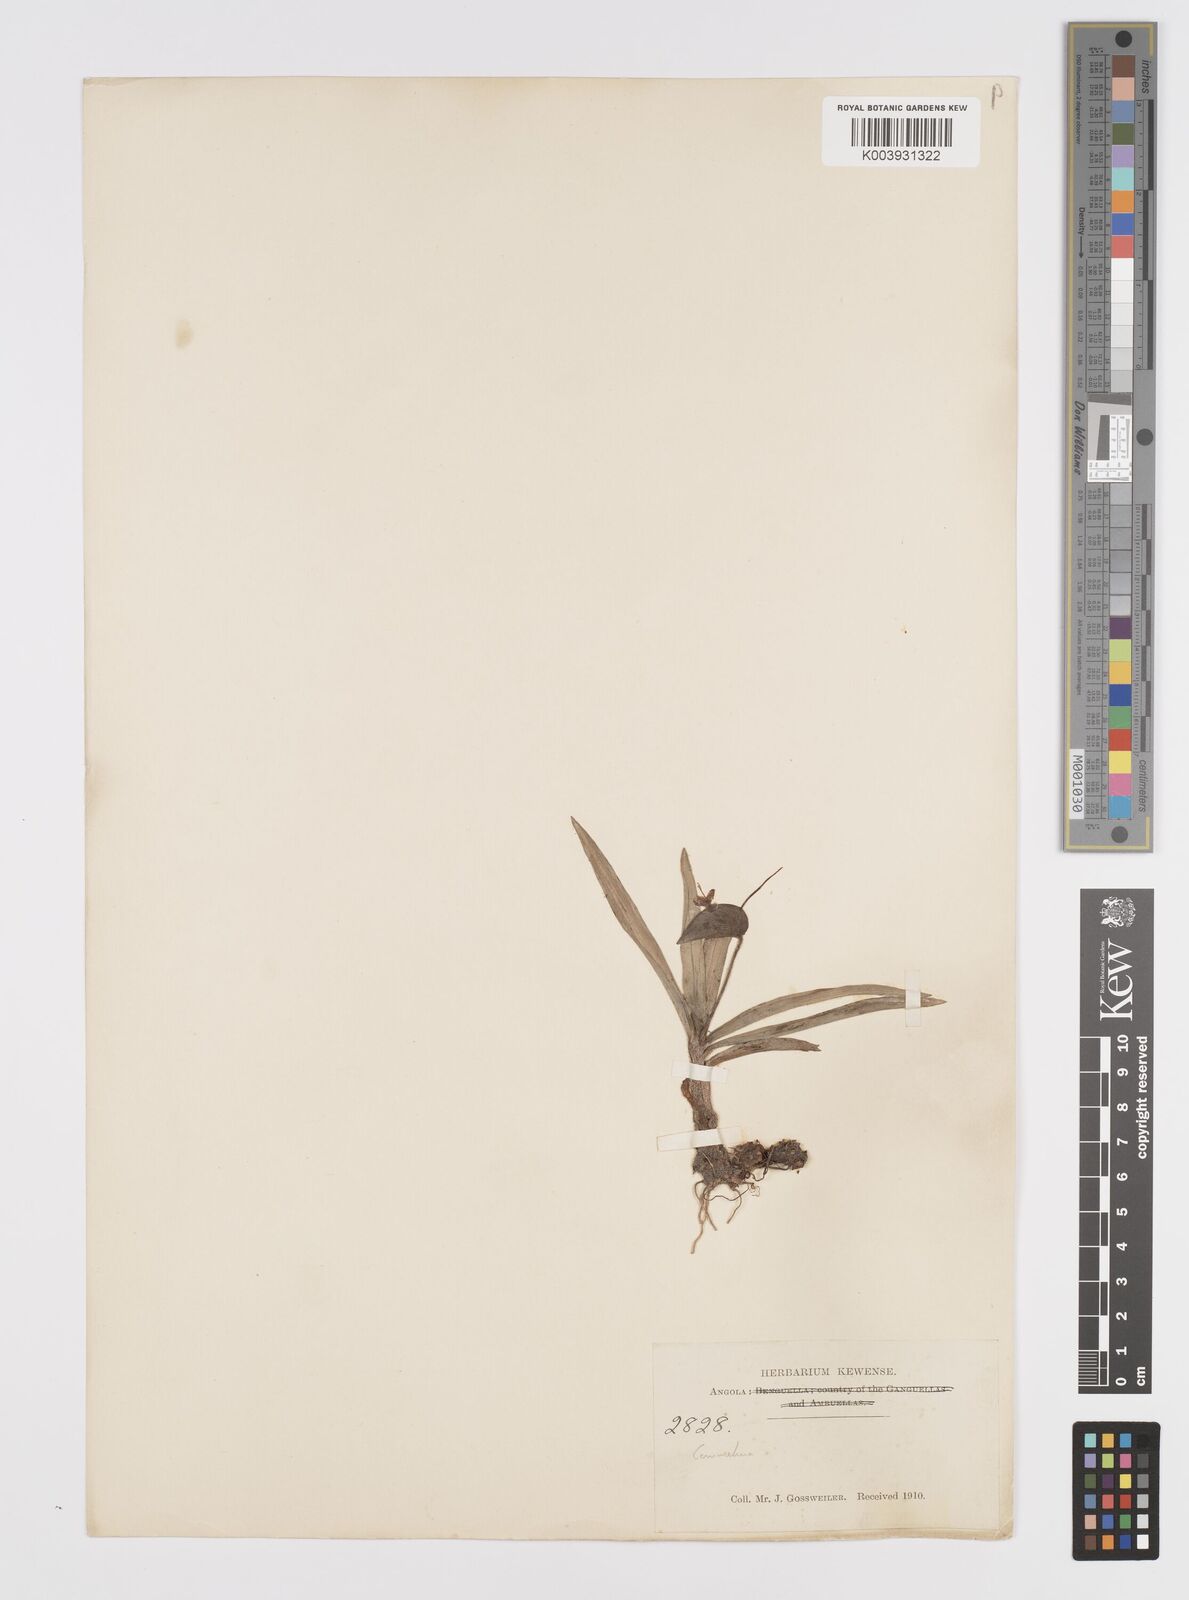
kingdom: Plantae
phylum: Tracheophyta
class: Liliopsida
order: Commelinales
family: Commelinaceae
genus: Commelina
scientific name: Commelina
